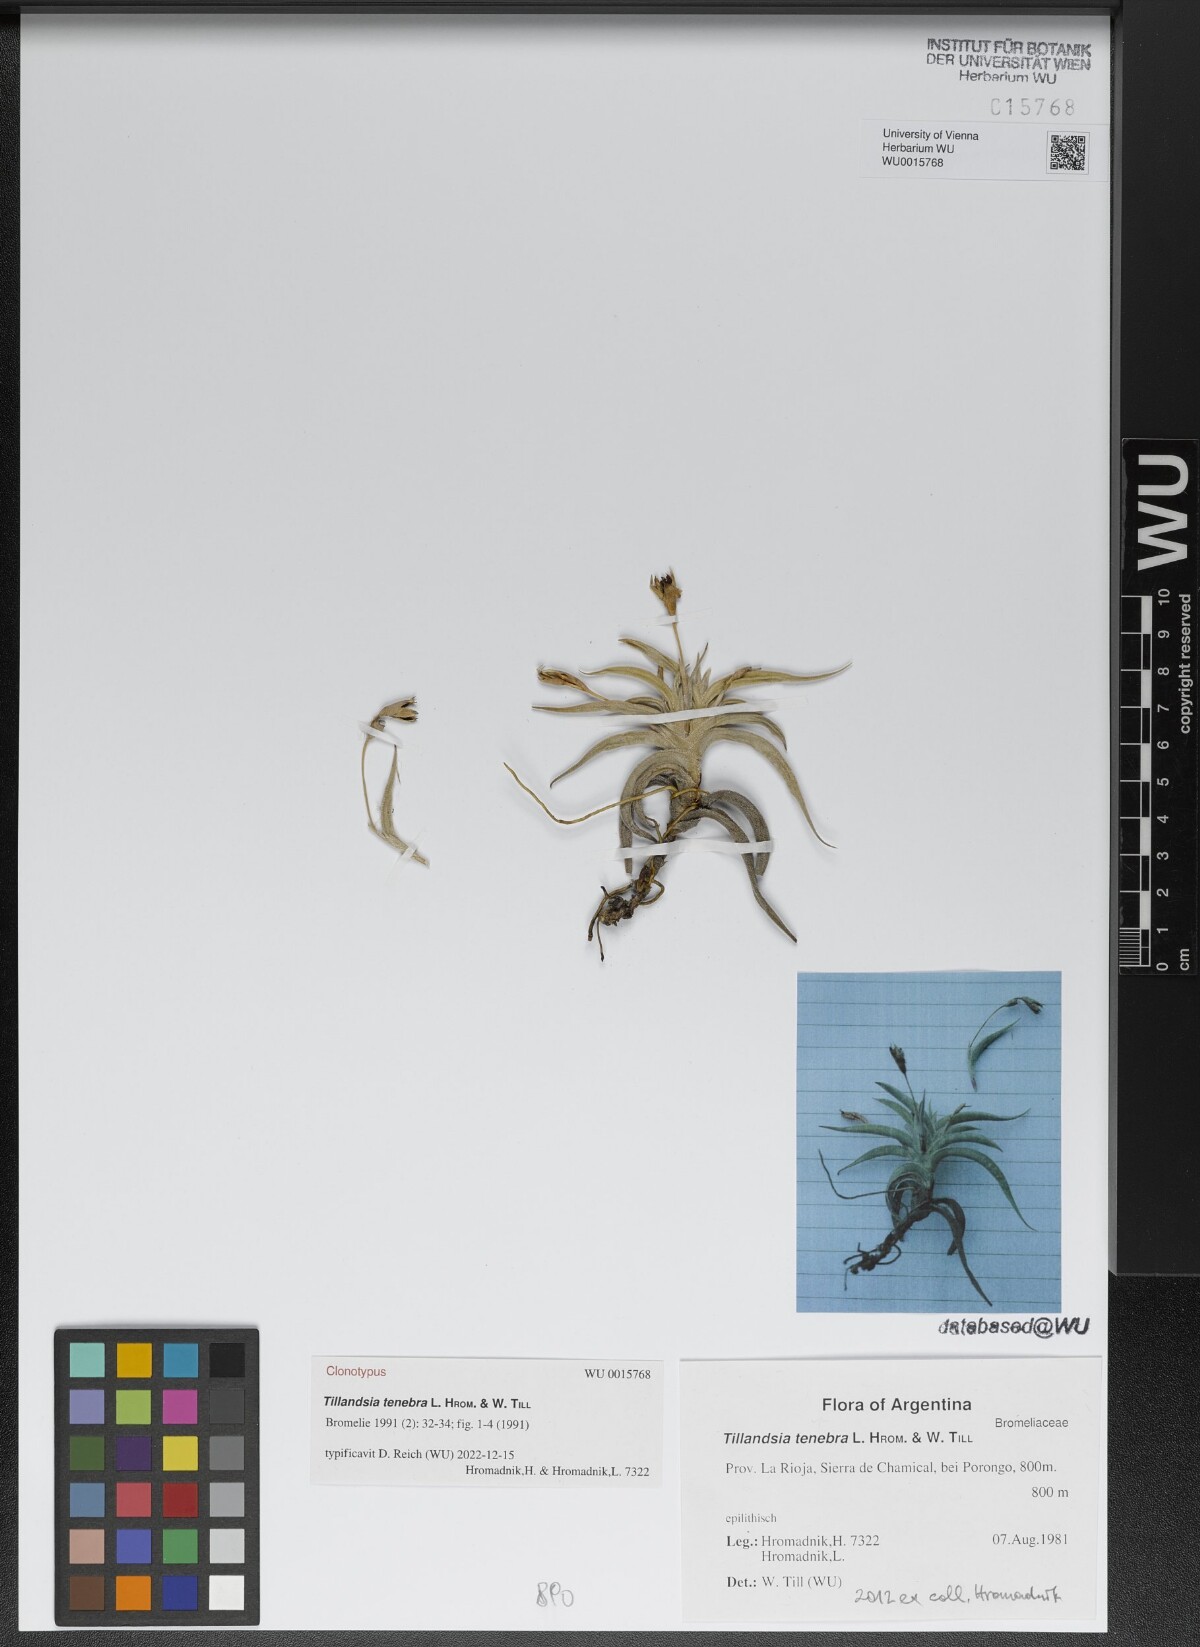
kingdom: Plantae
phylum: Tracheophyta
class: Liliopsida
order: Poales
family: Bromeliaceae
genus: Tillandsia
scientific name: Tillandsia tenebra
